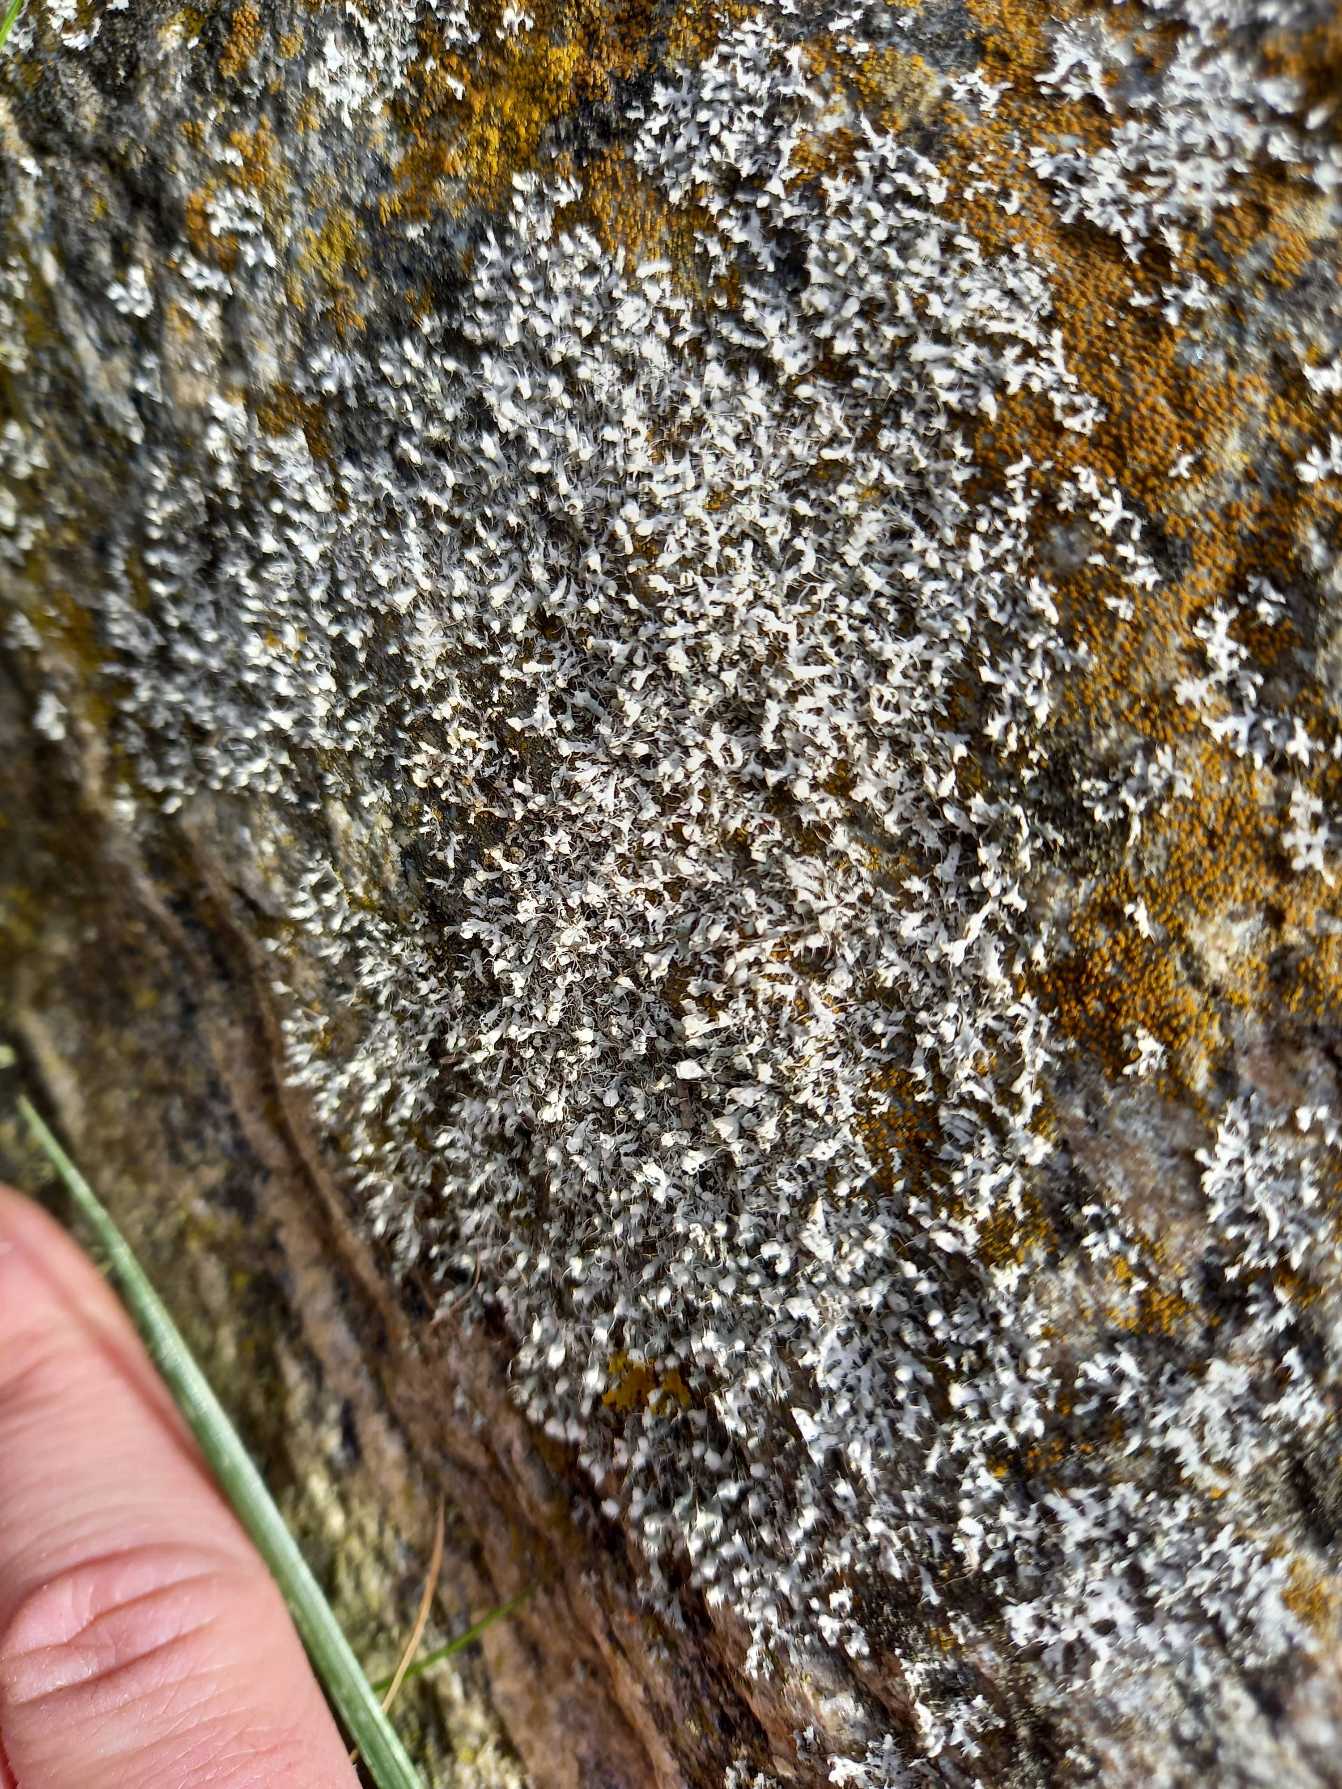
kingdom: Fungi
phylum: Ascomycota
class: Lecanoromycetes
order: Caliciales
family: Physciaceae
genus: Physcia
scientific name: Physcia adscendens
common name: Hætte-rosetlav
